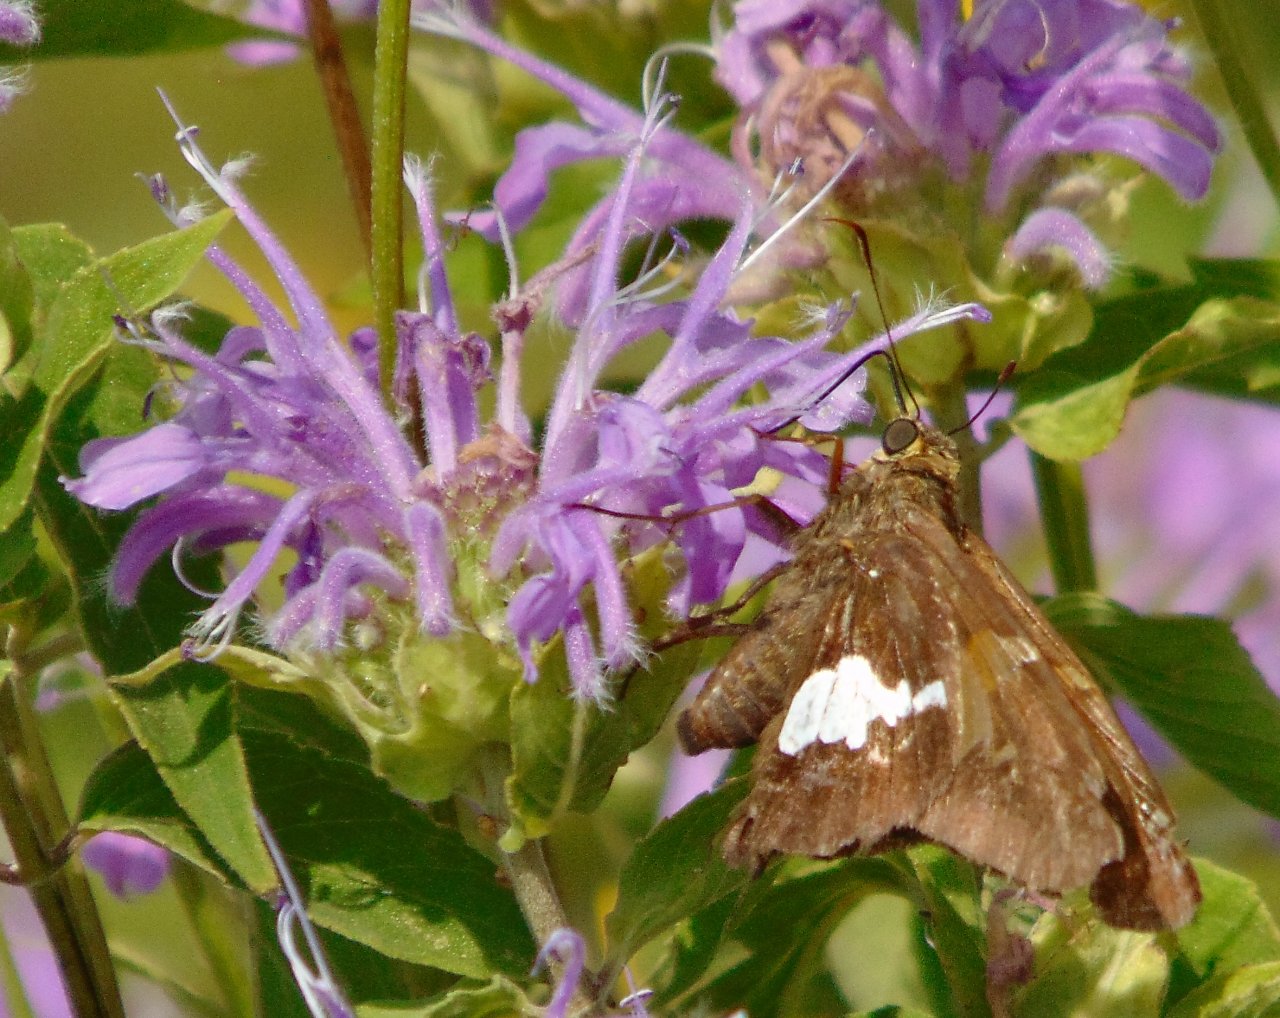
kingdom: Animalia
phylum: Arthropoda
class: Insecta
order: Lepidoptera
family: Hesperiidae
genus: Epargyreus
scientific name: Epargyreus clarus
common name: Silver-spotted Skipper
